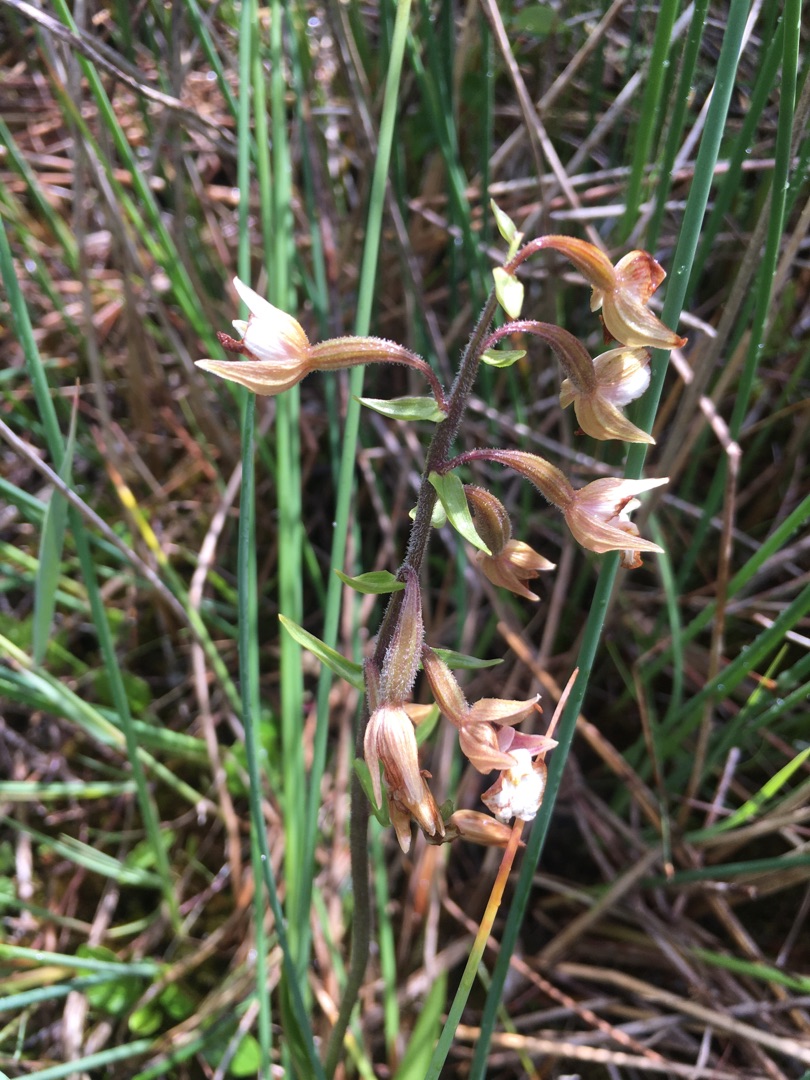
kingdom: Plantae
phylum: Tracheophyta
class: Liliopsida
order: Asparagales
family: Orchidaceae
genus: Epipactis
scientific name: Epipactis palustris
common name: Sump-hullæbe
